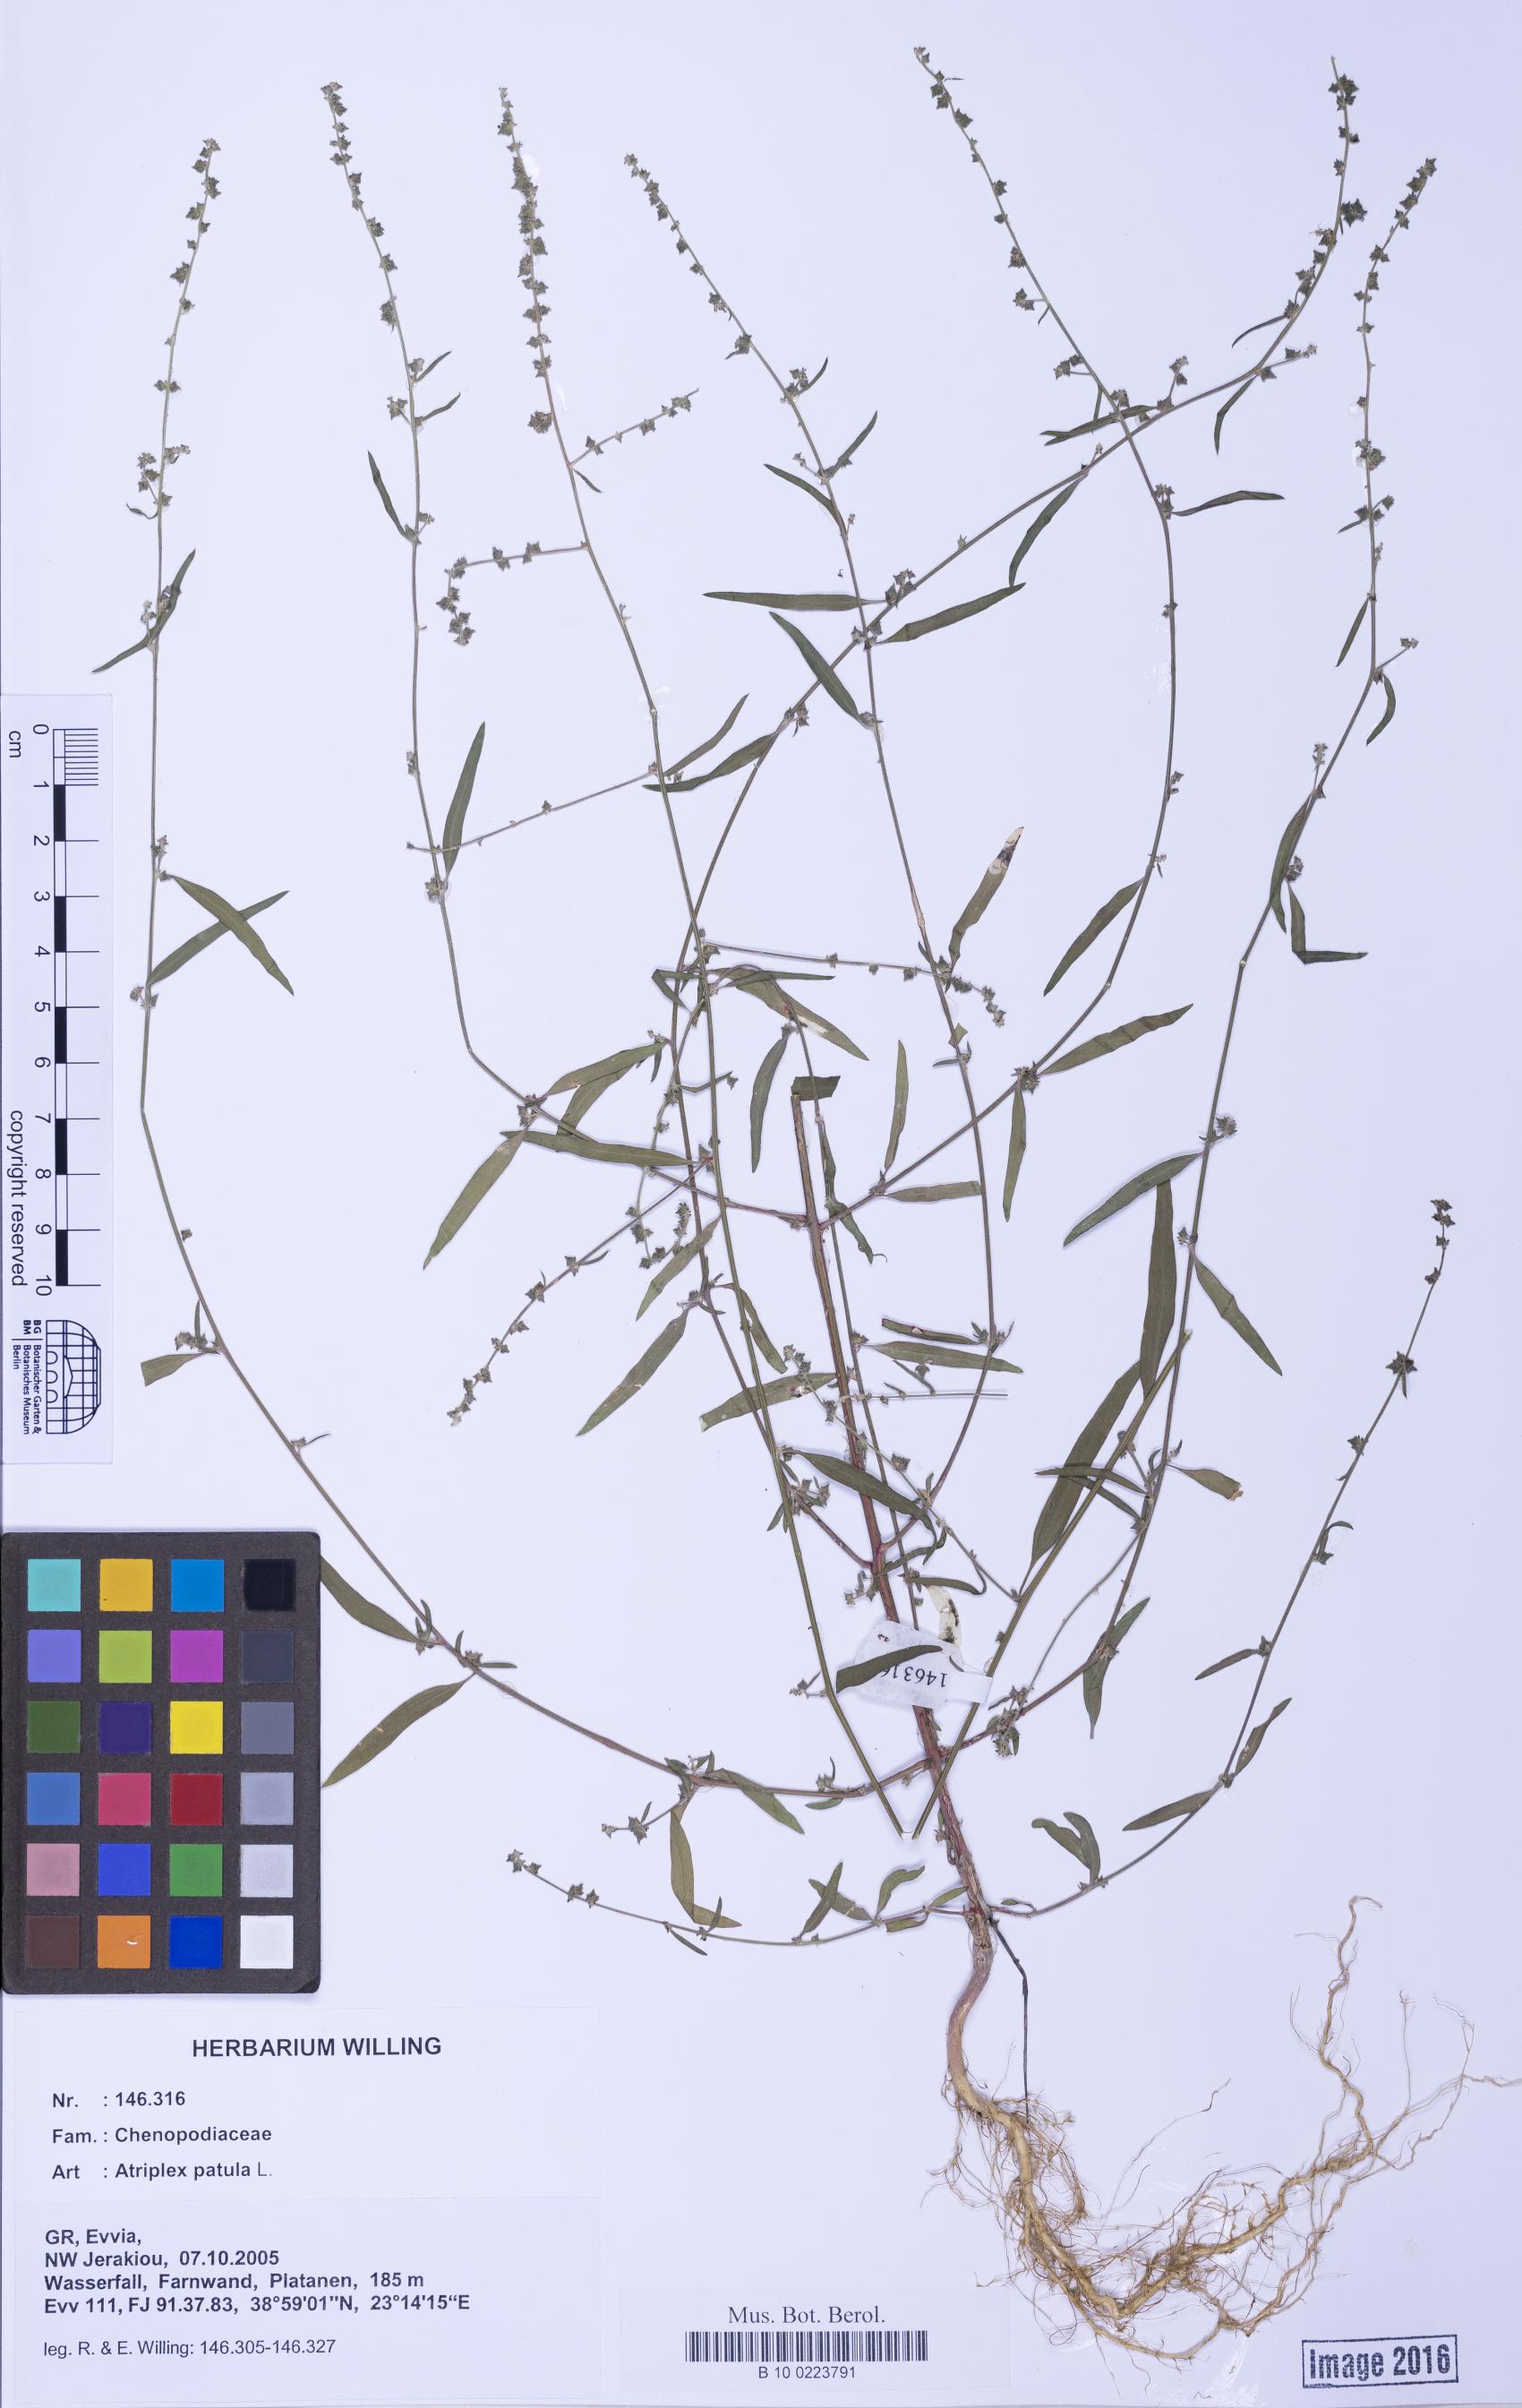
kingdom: Plantae
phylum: Tracheophyta
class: Magnoliopsida
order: Caryophyllales
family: Amaranthaceae
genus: Atriplex
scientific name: Atriplex patula
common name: Common orache
